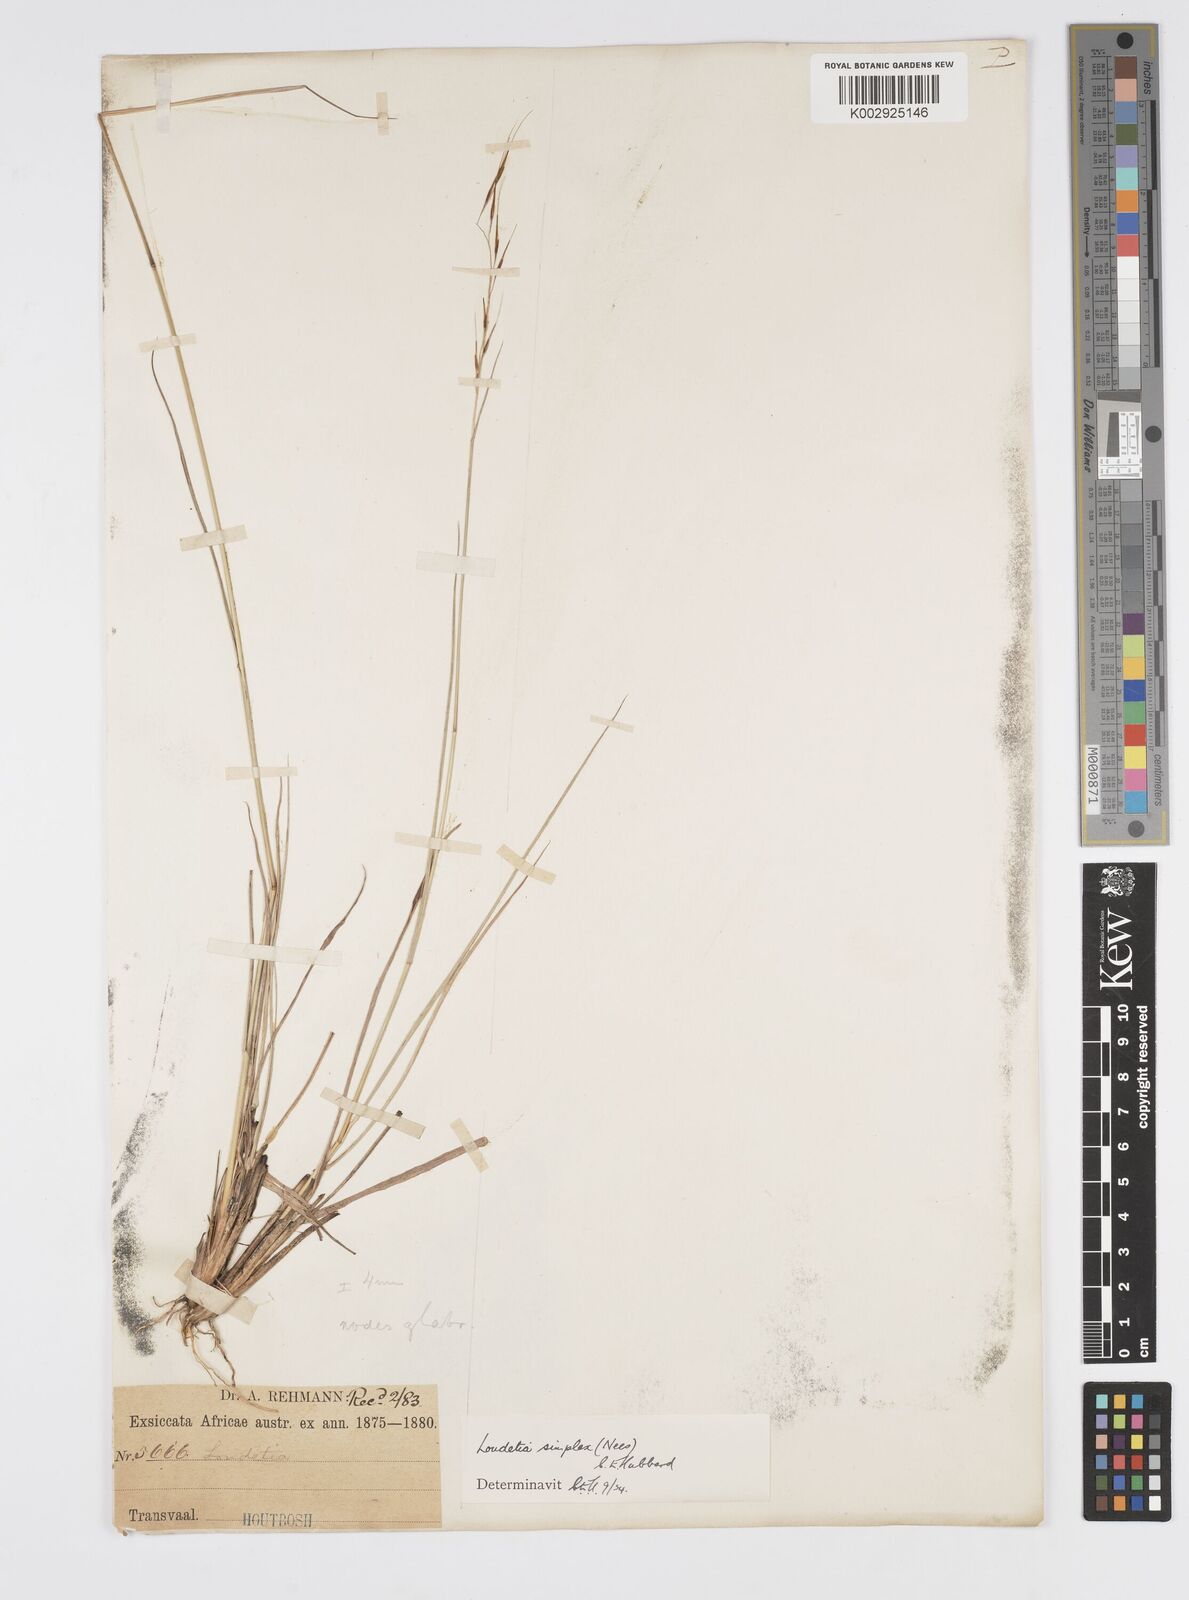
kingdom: Plantae
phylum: Tracheophyta
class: Liliopsida
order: Poales
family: Poaceae
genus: Loudetia
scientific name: Loudetia simplex
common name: Common russet grass
